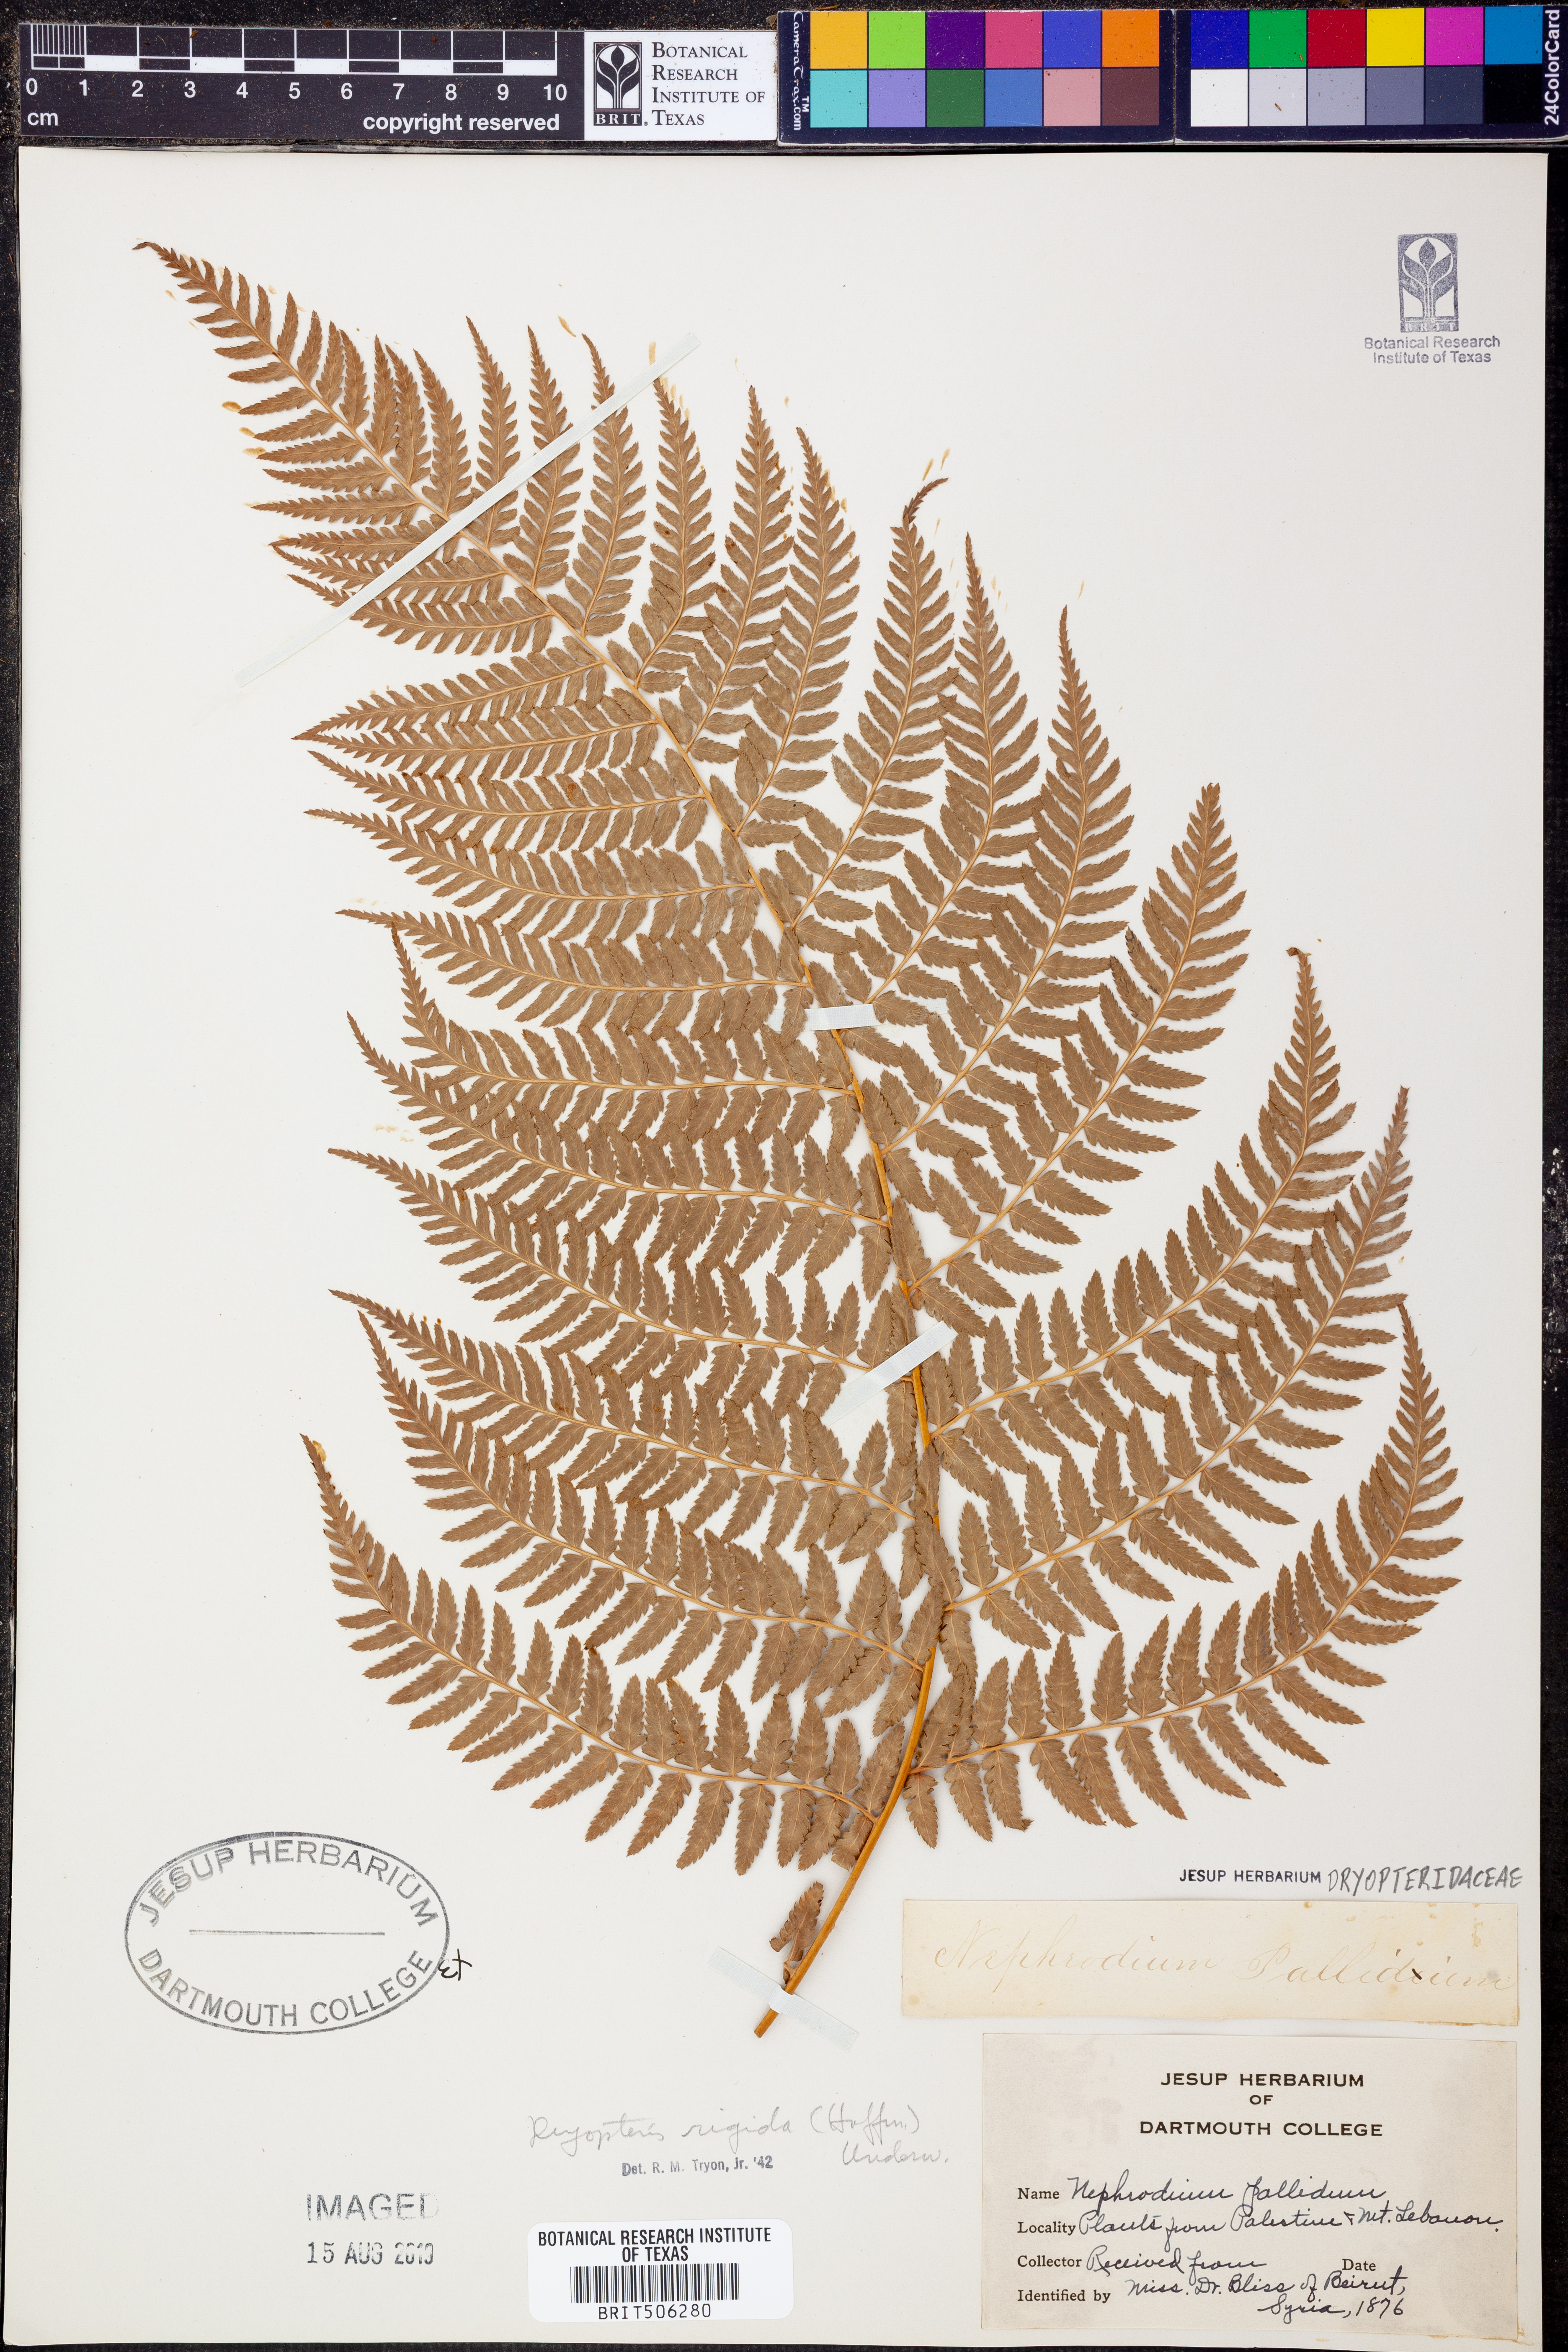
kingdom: Plantae
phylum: Tracheophyta
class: Polypodiopsida
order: Polypodiales
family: Dryopteridaceae
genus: Dryopteris
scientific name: Dryopteris
